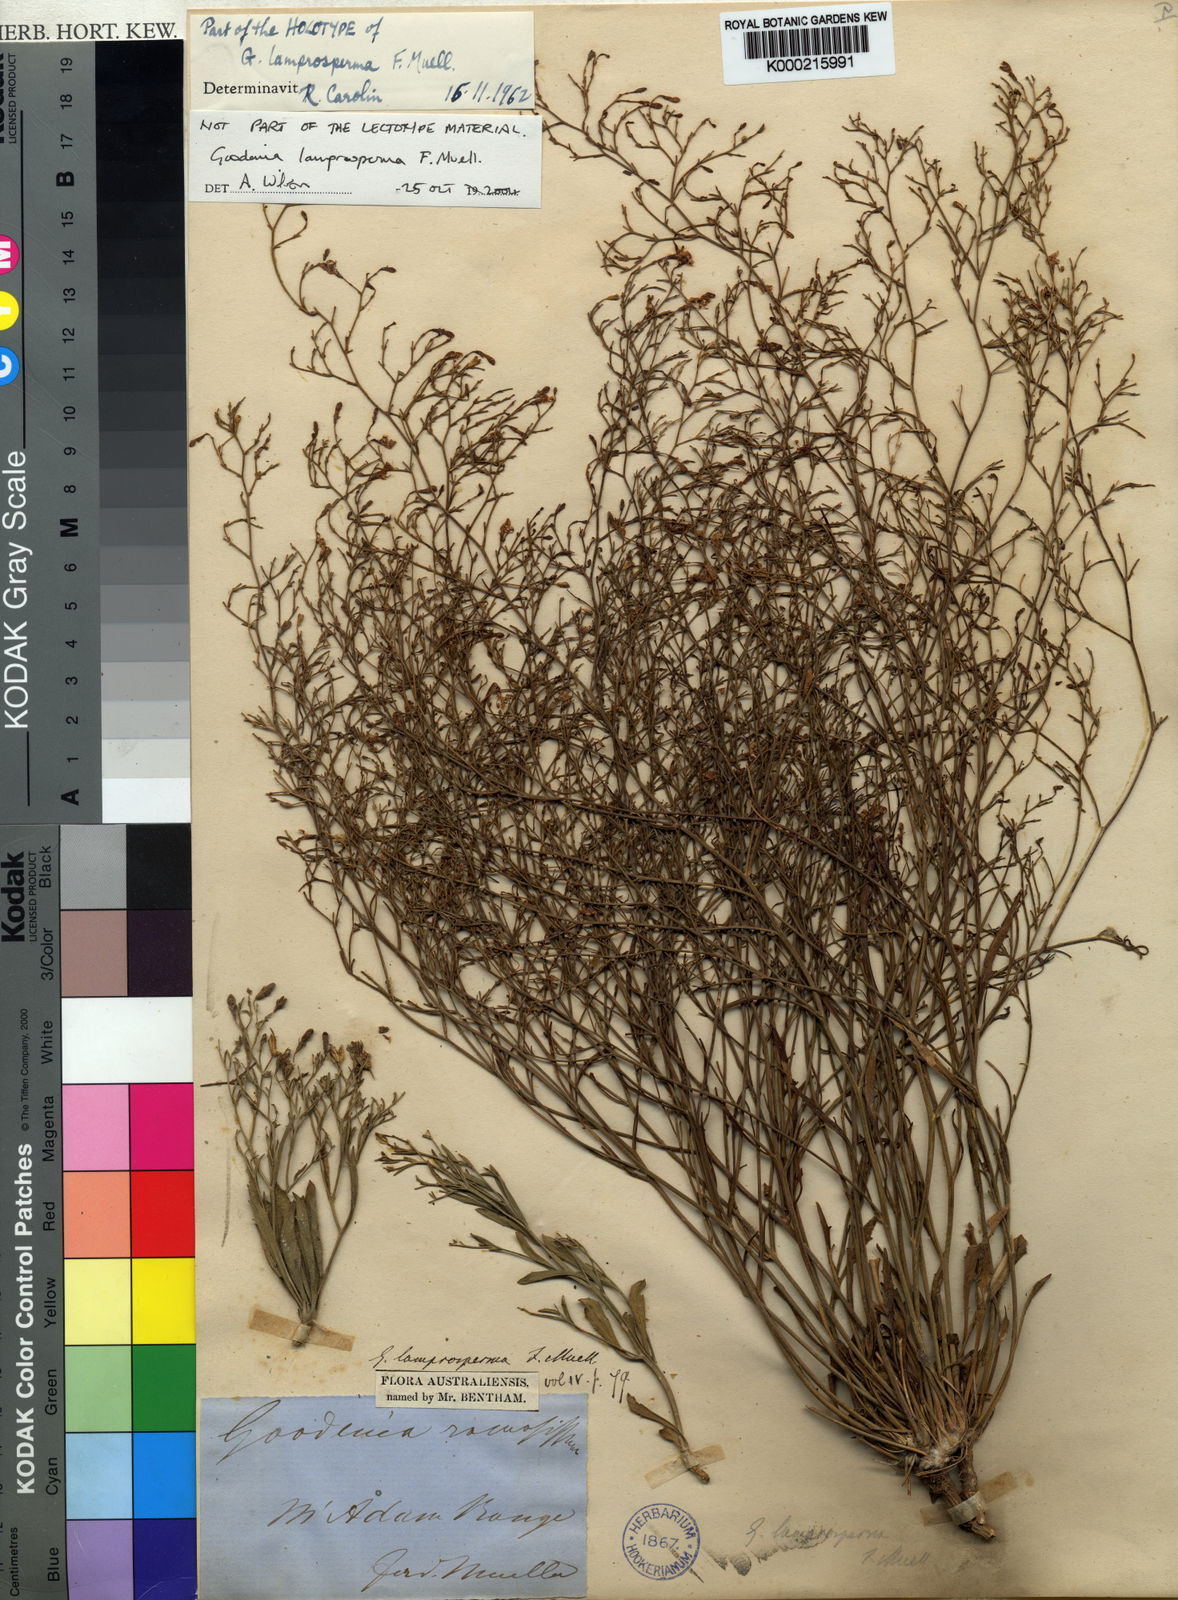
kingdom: Plantae
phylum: Tracheophyta
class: Magnoliopsida
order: Asterales
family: Goodeniaceae
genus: Goodenia
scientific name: Goodenia lamprosperma
